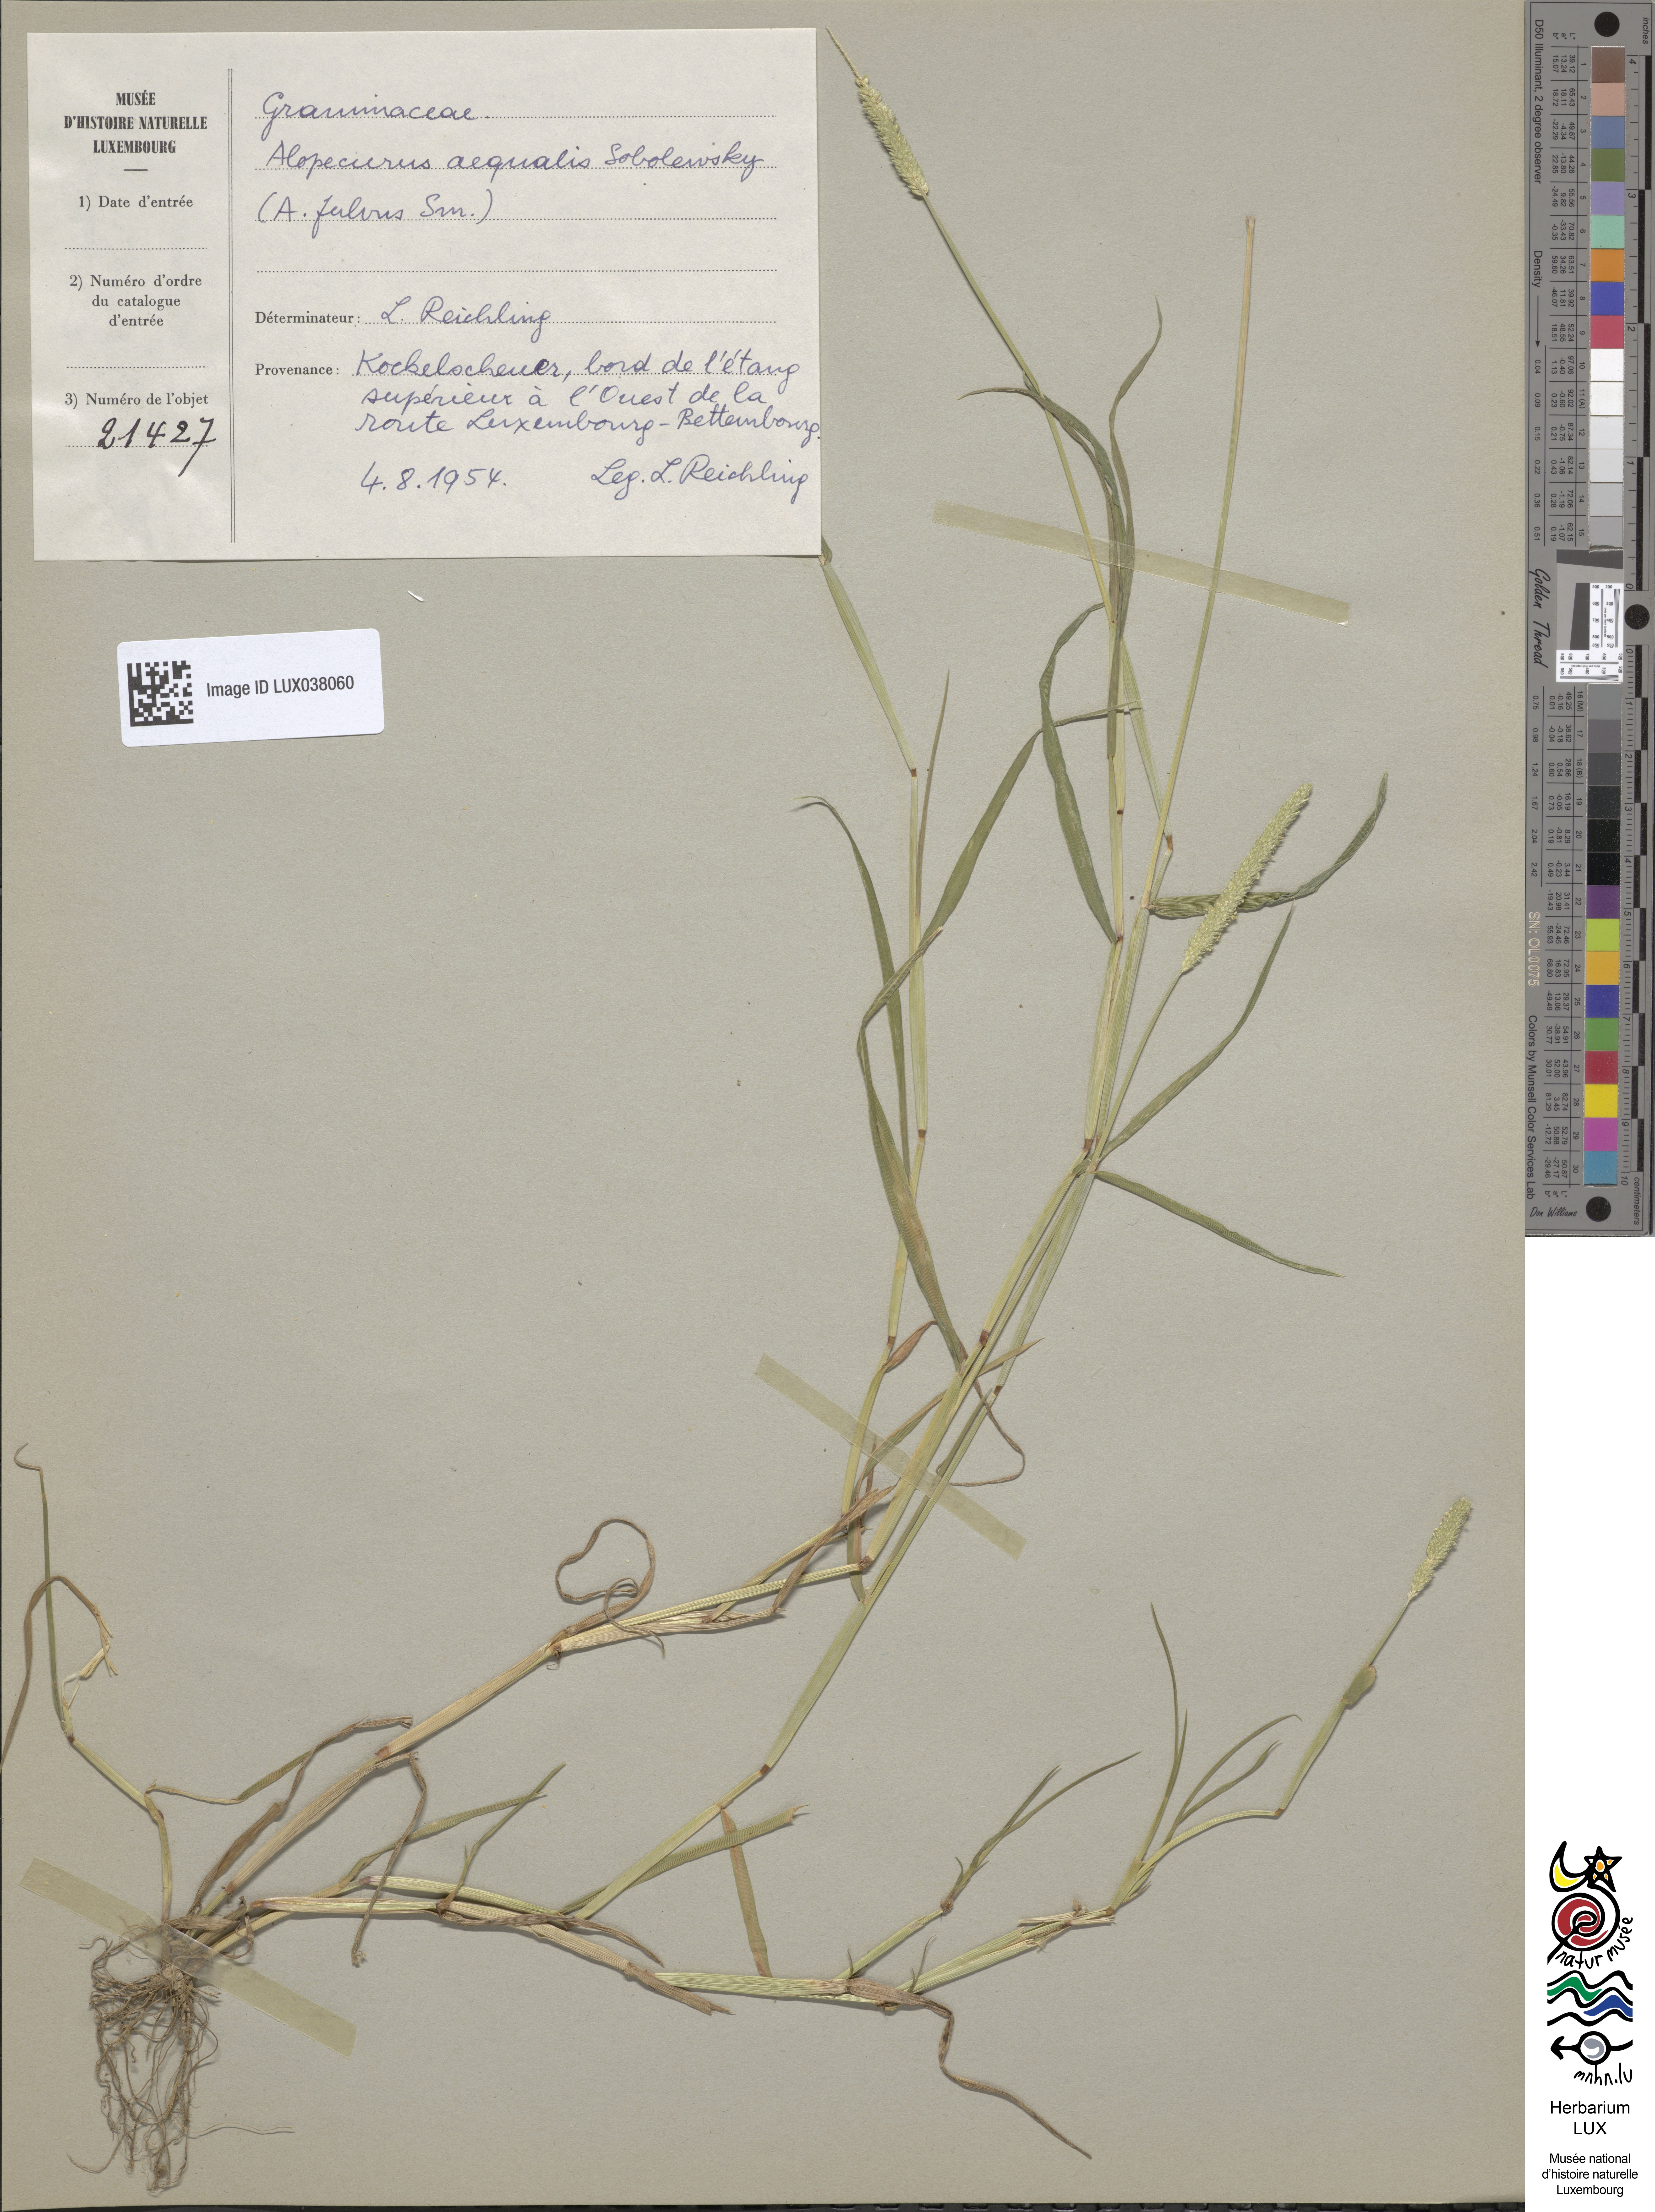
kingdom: Plantae
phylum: Tracheophyta
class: Liliopsida
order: Poales
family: Poaceae
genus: Alopecurus
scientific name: Alopecurus aequalis
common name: Orange foxtail
